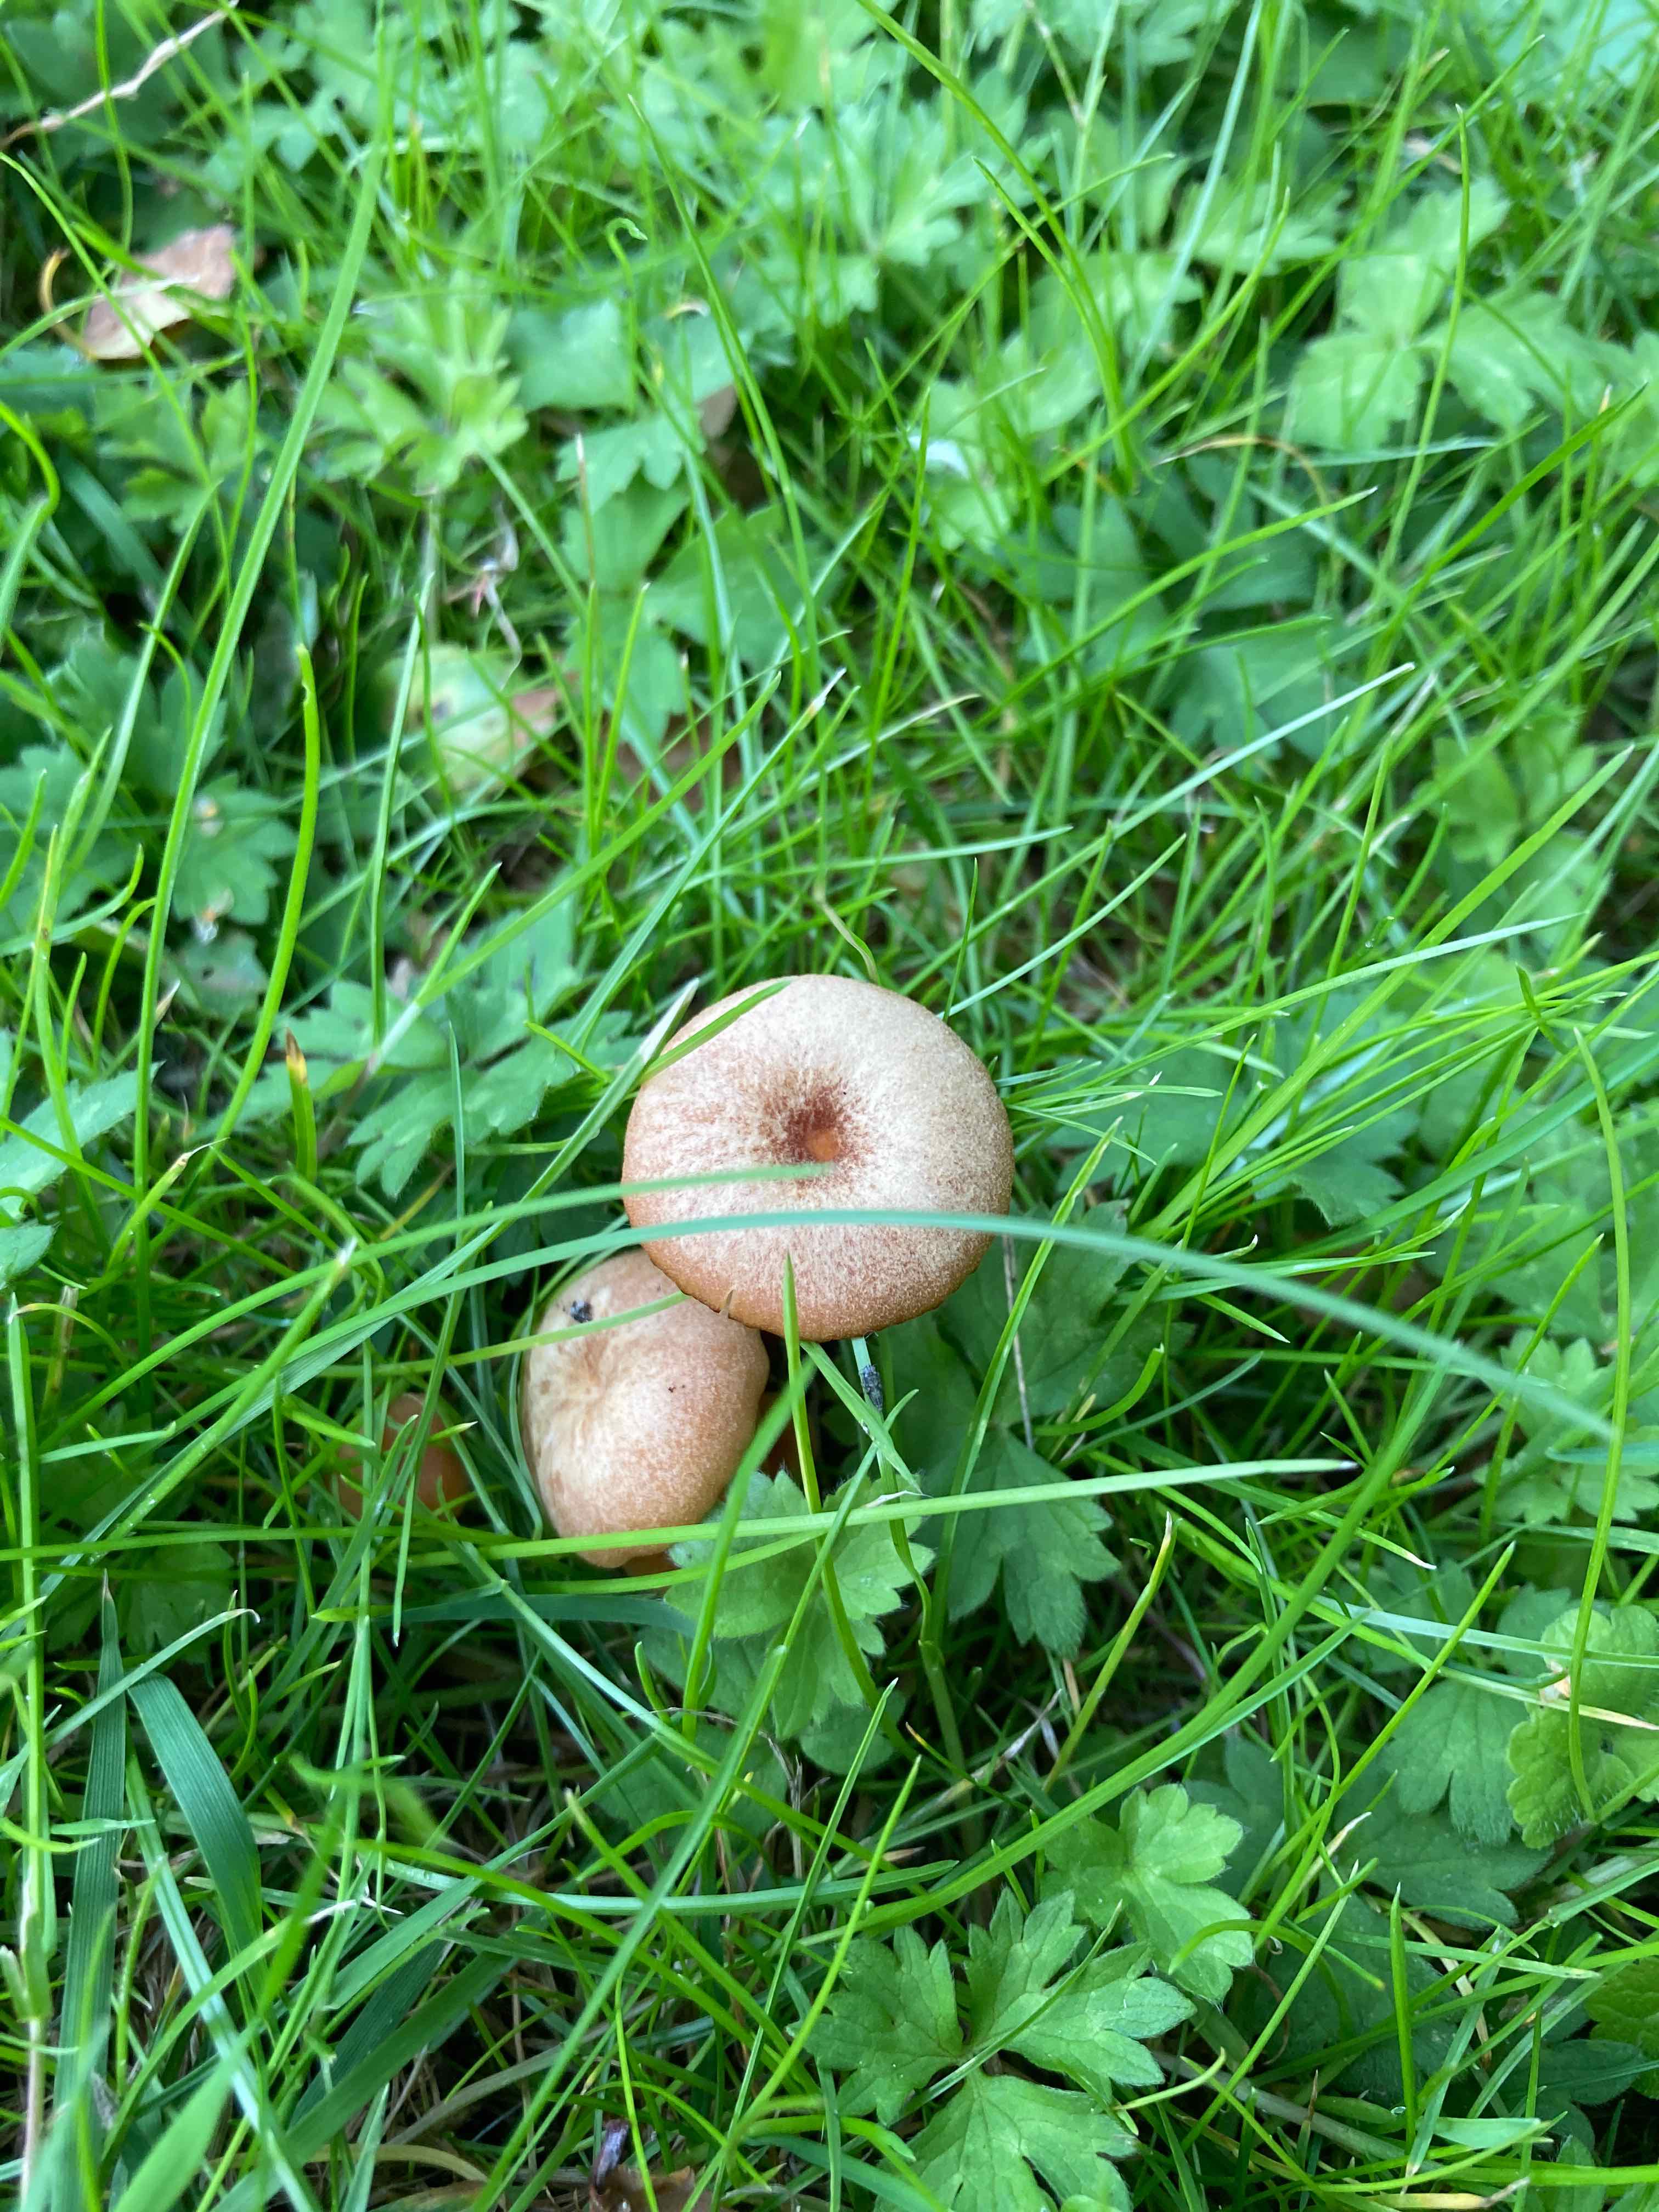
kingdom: Fungi
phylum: Basidiomycota
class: Agaricomycetes
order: Agaricales
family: Hydnangiaceae
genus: Laccaria
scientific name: Laccaria laccata
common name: rød ametysthat
